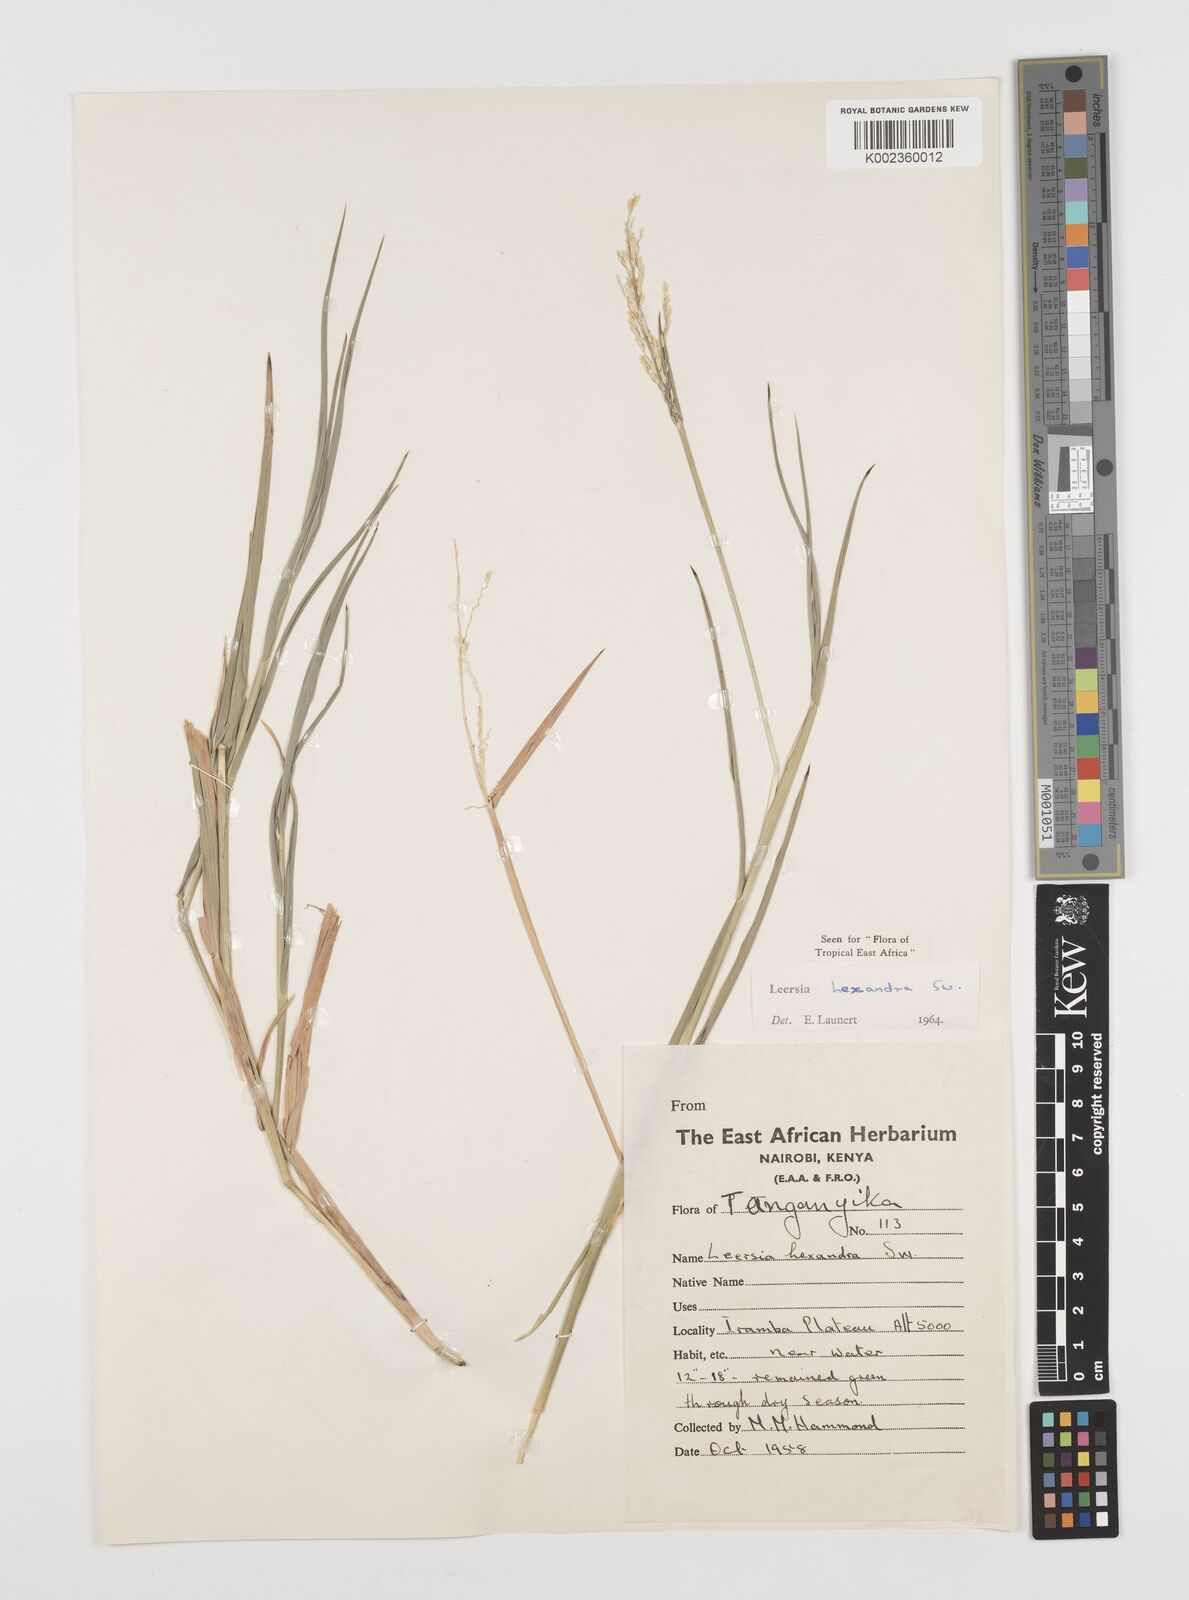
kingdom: Plantae
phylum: Tracheophyta
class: Liliopsida
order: Poales
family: Poaceae
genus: Leersia
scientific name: Leersia hexandra
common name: Southern cut grass
